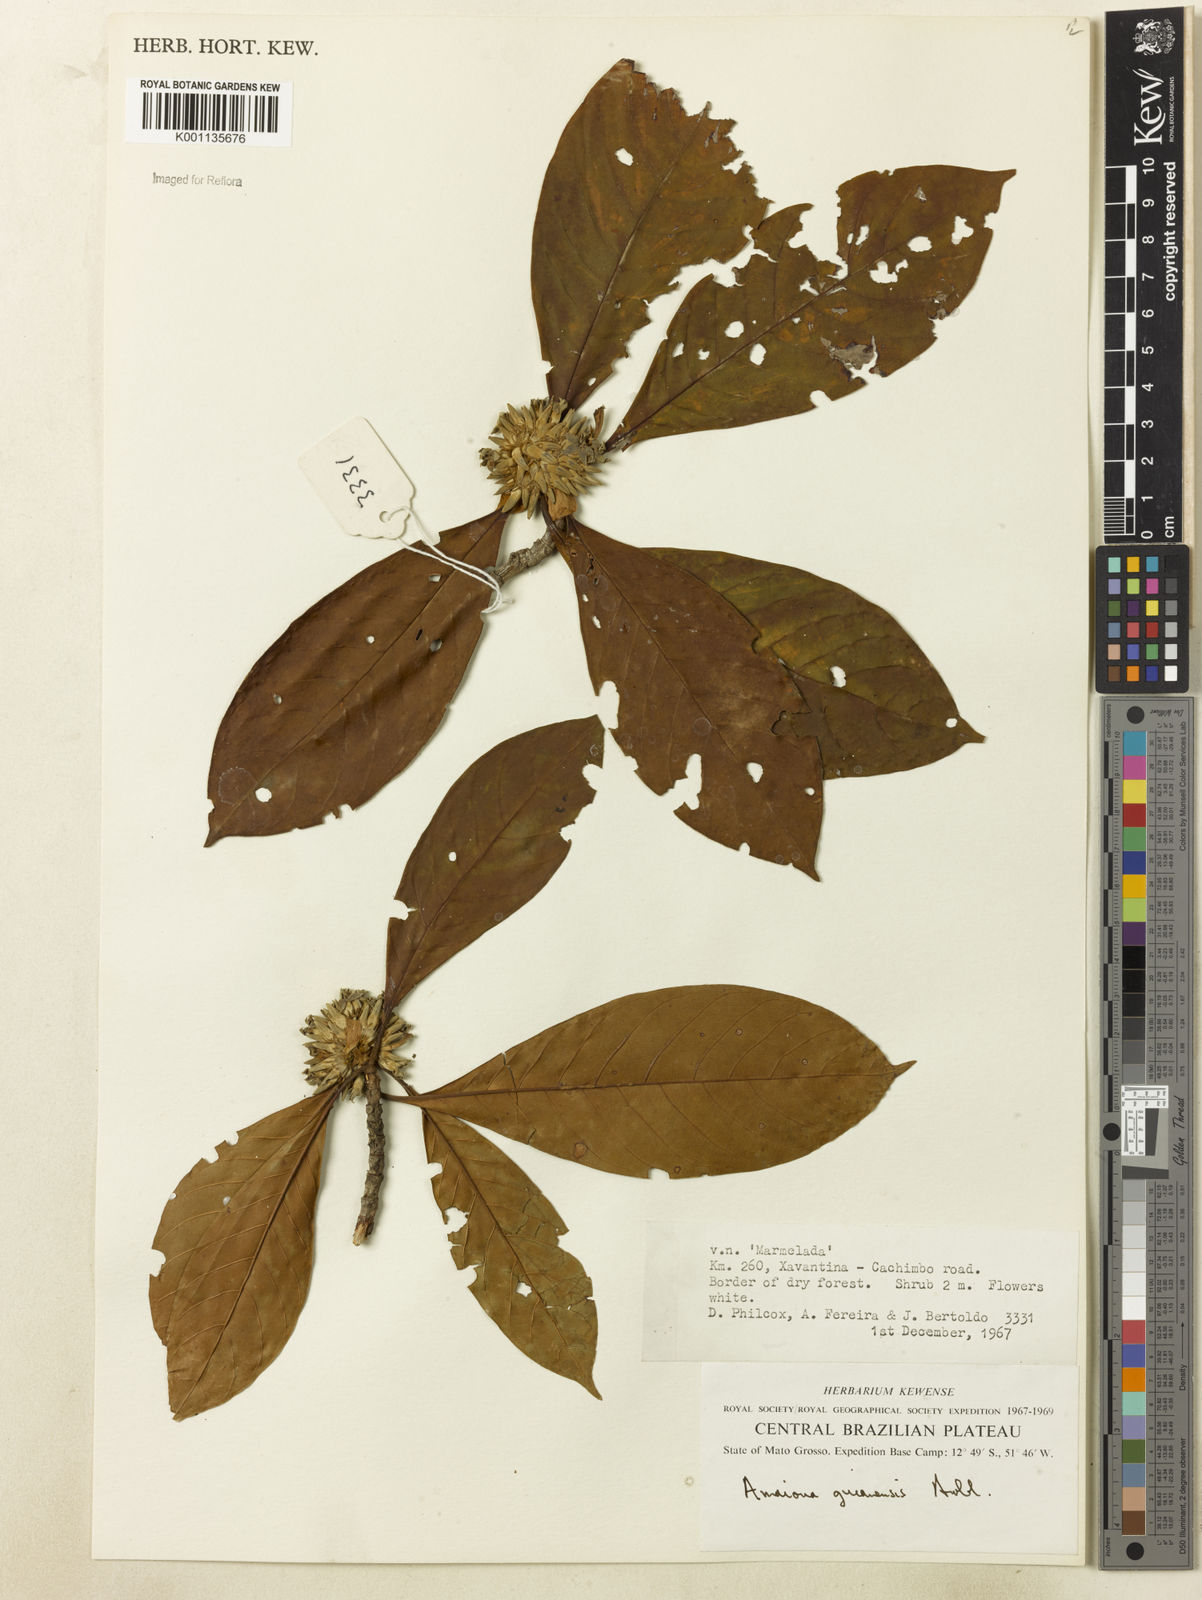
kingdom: Plantae
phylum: Tracheophyta
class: Magnoliopsida
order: Gentianales
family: Rubiaceae
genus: Amaioua
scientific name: Amaioua guianensis
